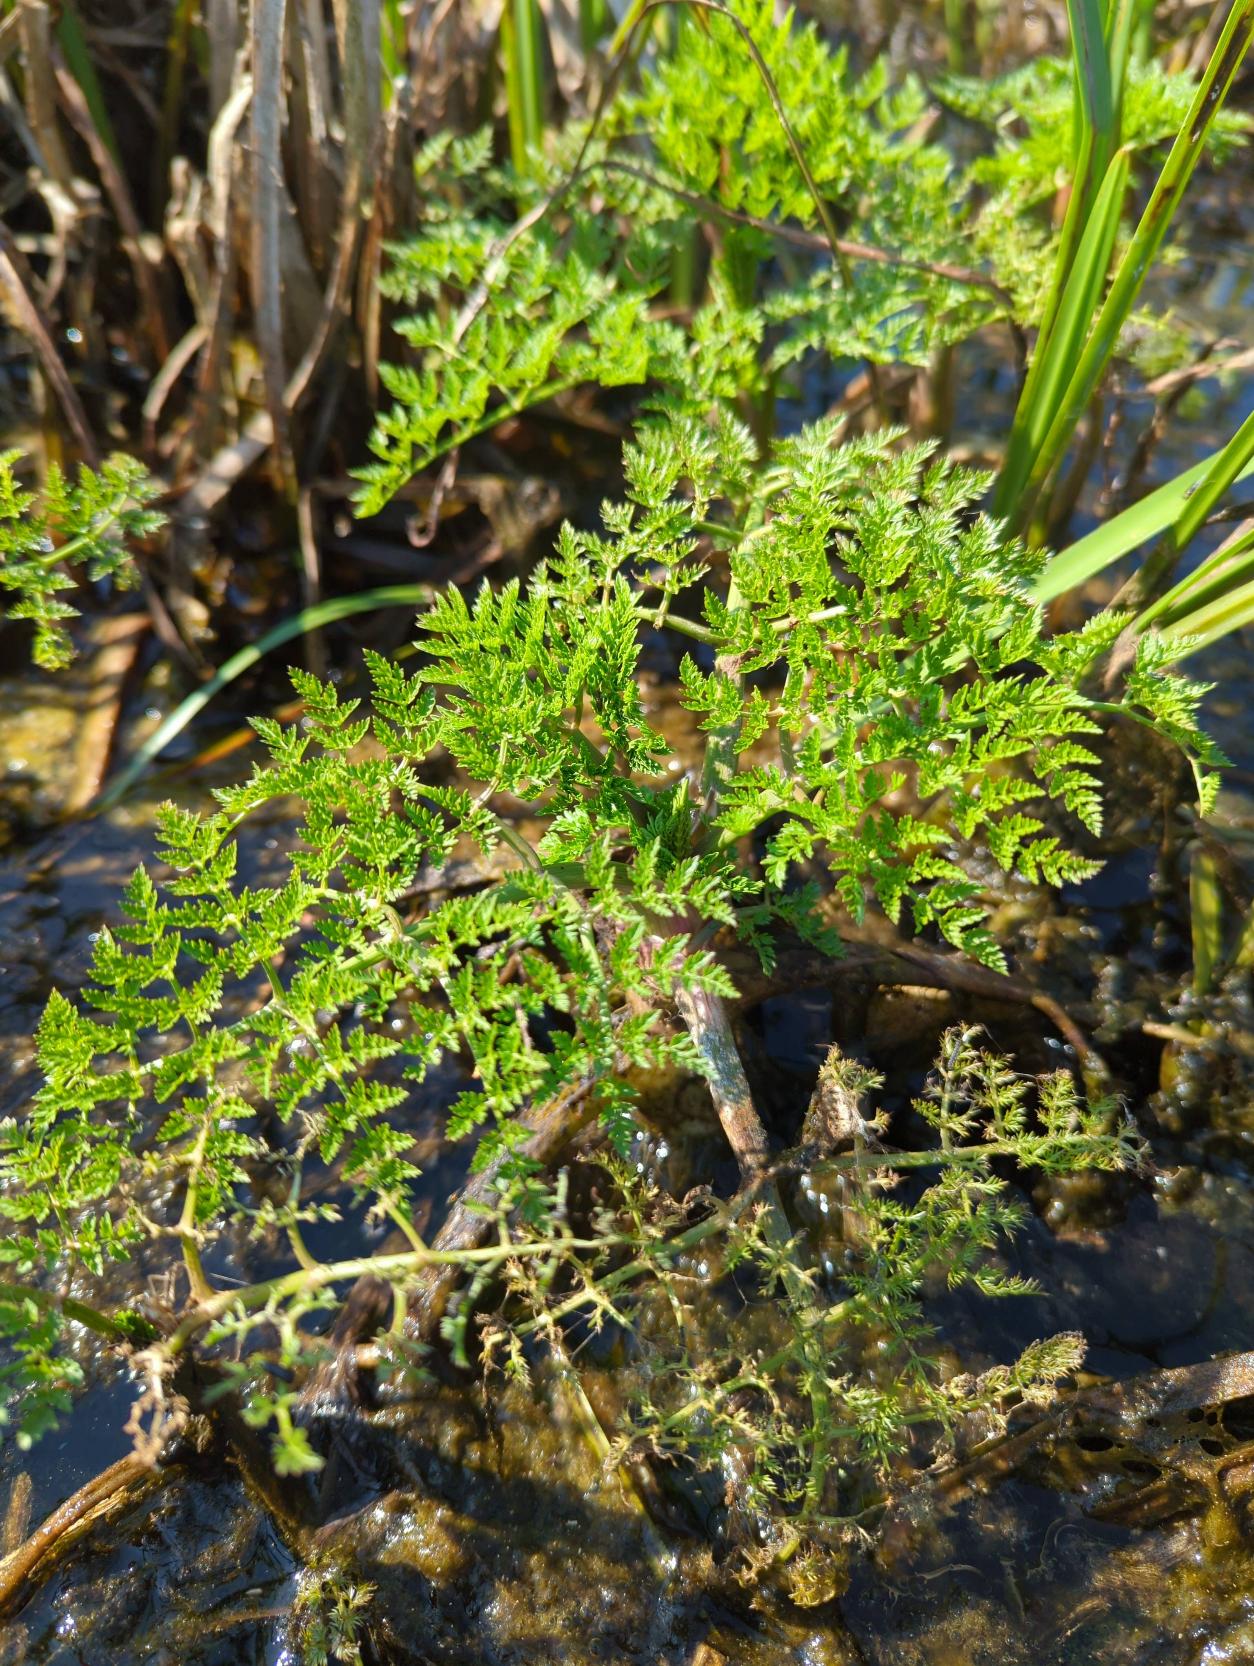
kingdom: Plantae
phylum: Tracheophyta
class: Magnoliopsida
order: Apiales
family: Apiaceae
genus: Oenanthe
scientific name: Oenanthe aquatica
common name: Billebo-klaseskærm
